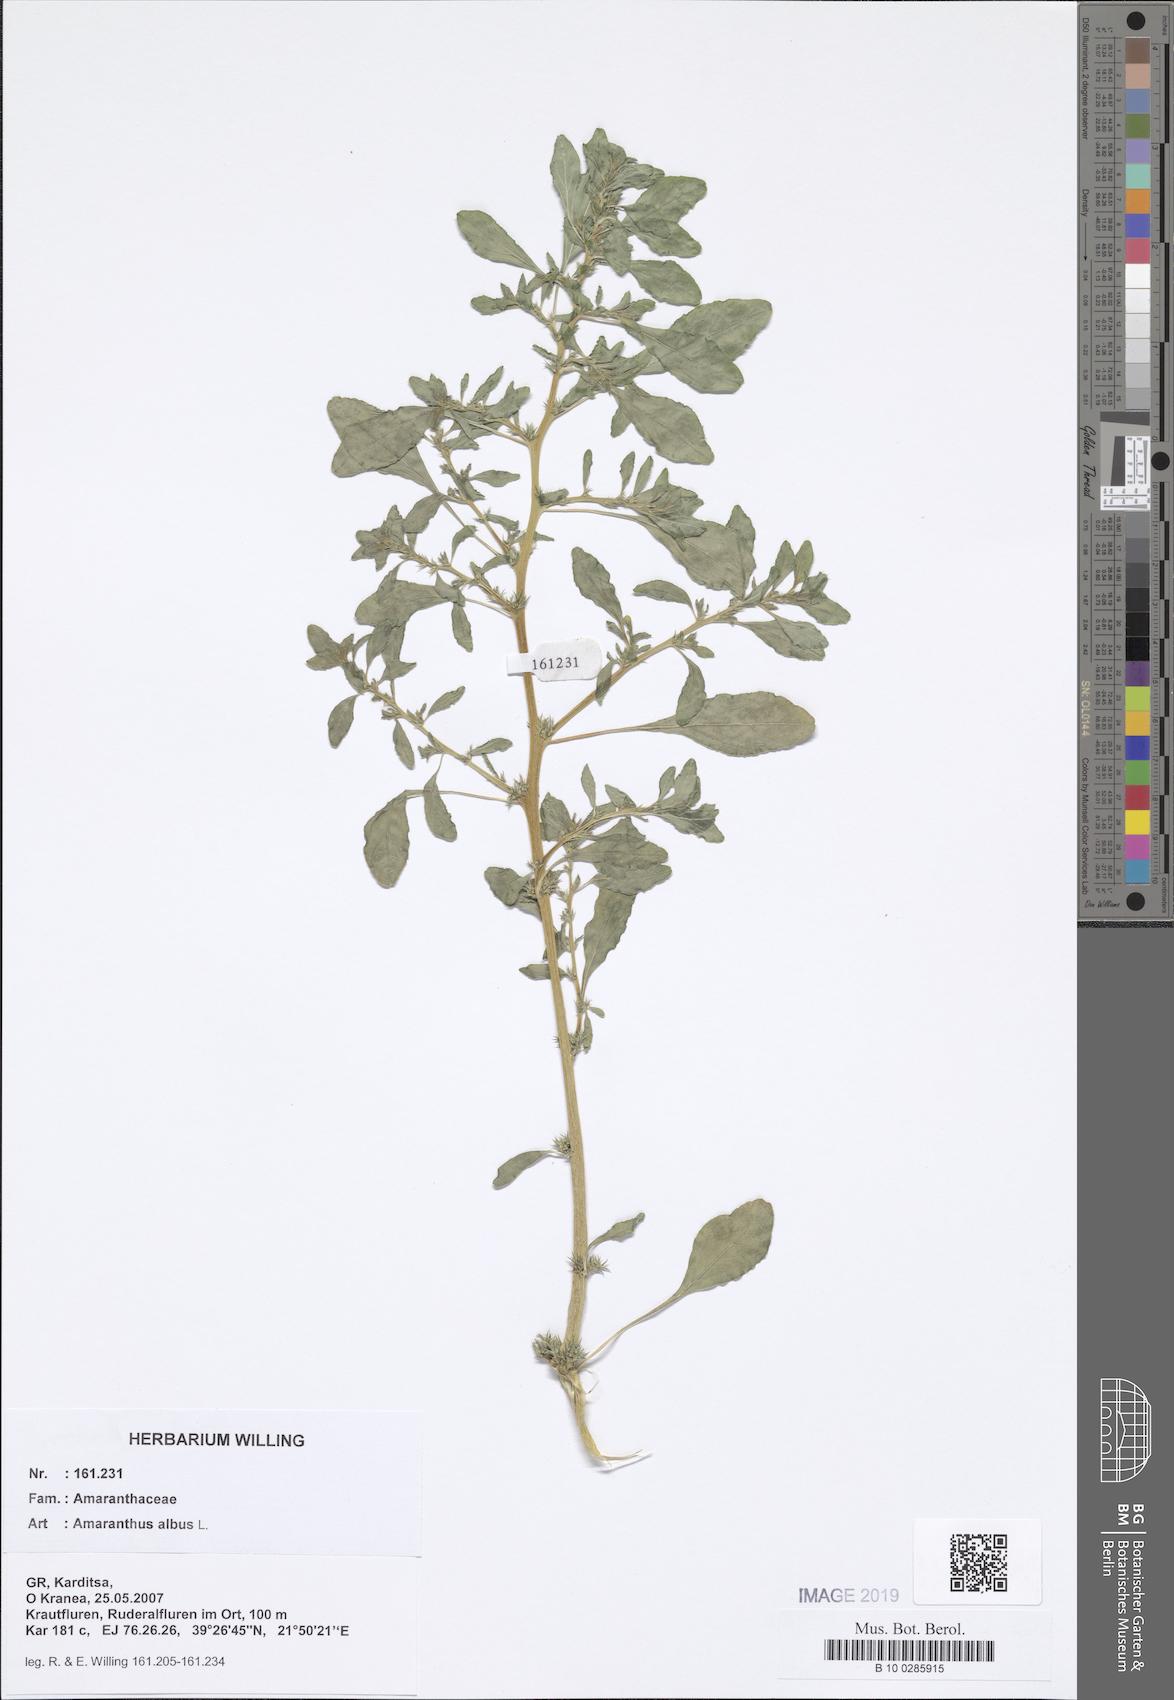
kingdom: Plantae
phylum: Tracheophyta
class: Magnoliopsida
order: Caryophyllales
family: Amaranthaceae
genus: Amaranthus
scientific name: Amaranthus albus
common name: White pigweed
